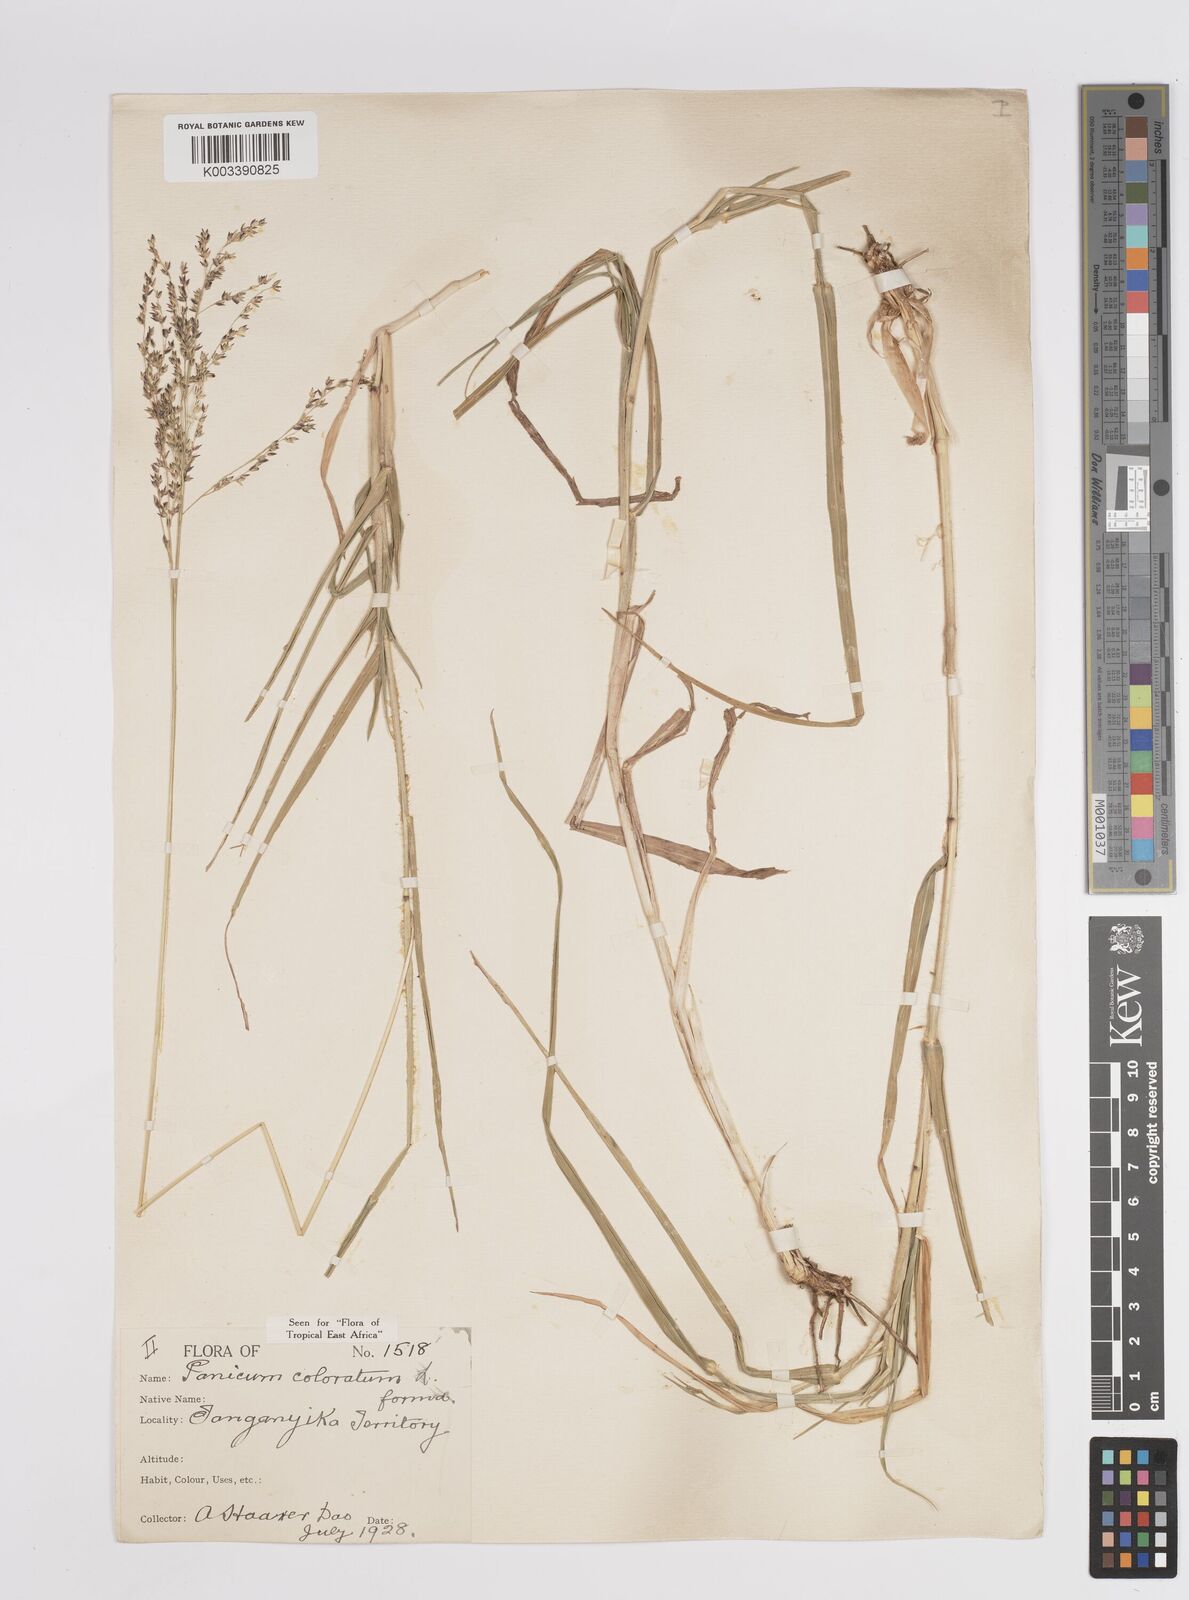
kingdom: Plantae
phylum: Tracheophyta
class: Liliopsida
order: Poales
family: Poaceae
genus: Panicum
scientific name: Panicum coloratum
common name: Kleingrass
